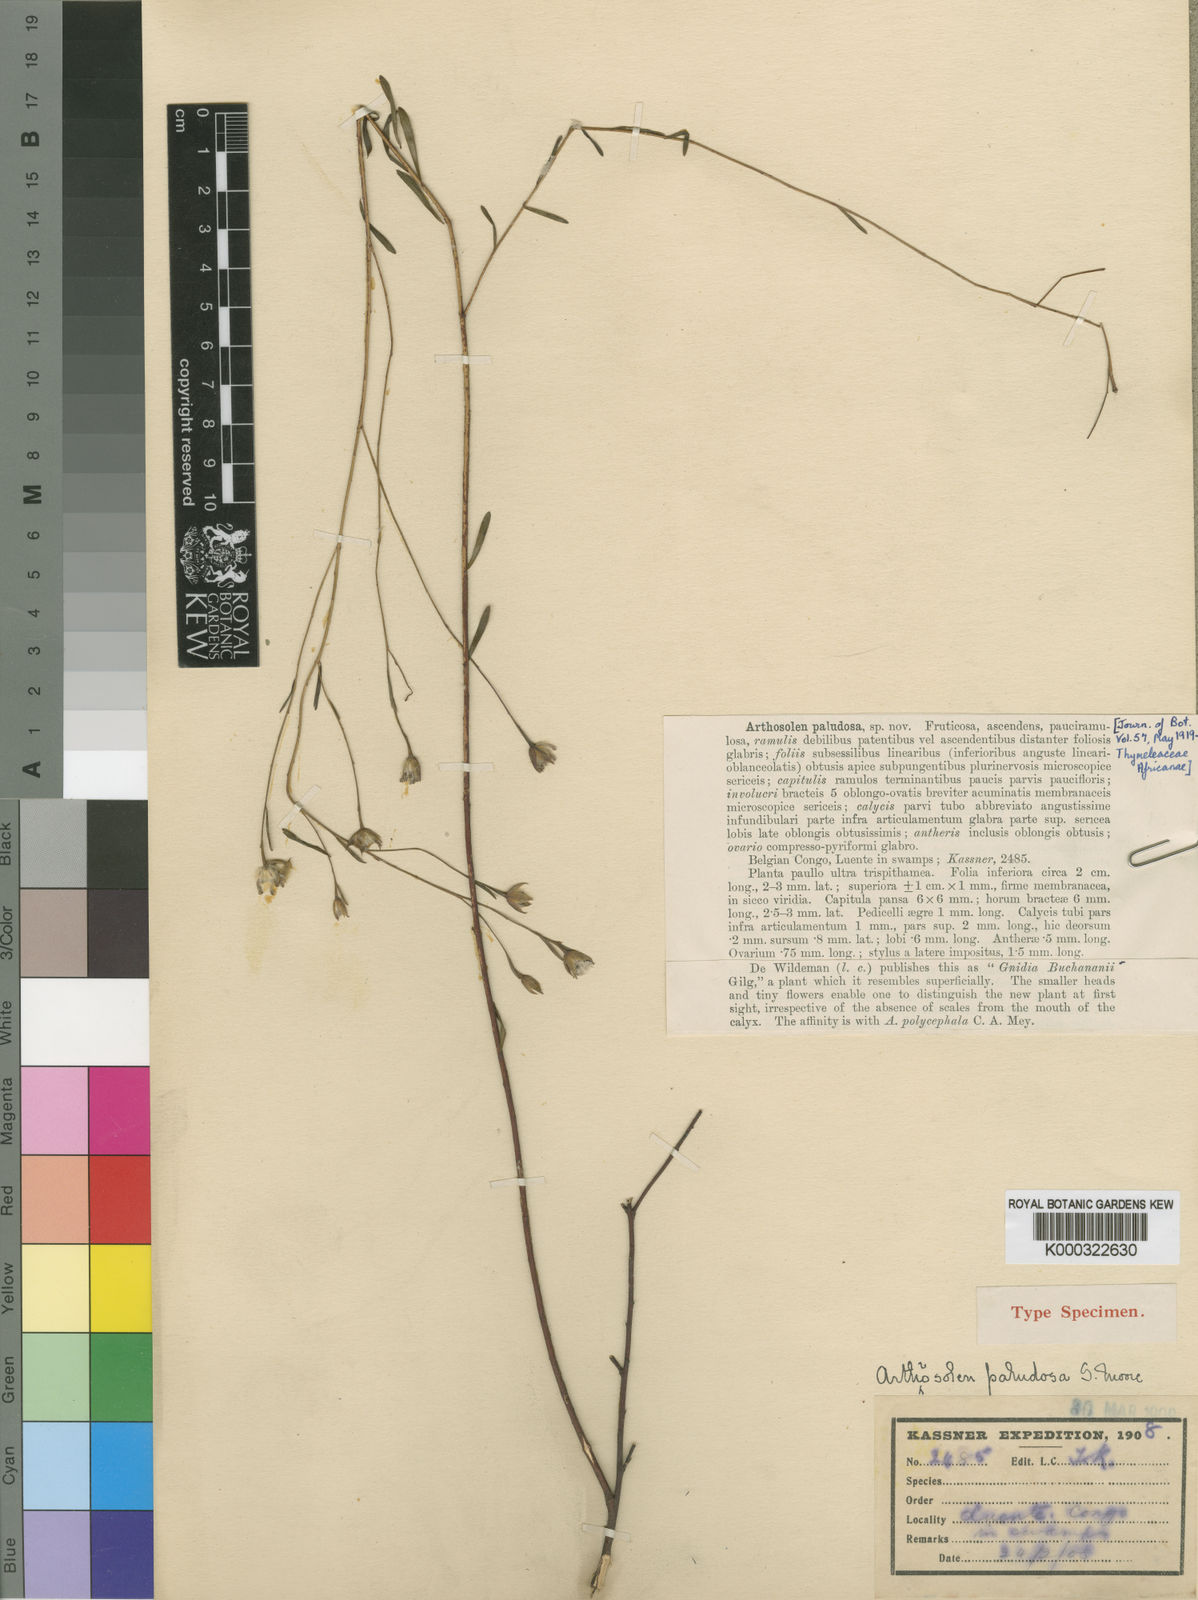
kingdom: Plantae
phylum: Tracheophyta
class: Magnoliopsida
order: Malvales
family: Thymelaeaceae
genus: Gnidia
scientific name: Gnidia goetzeana
